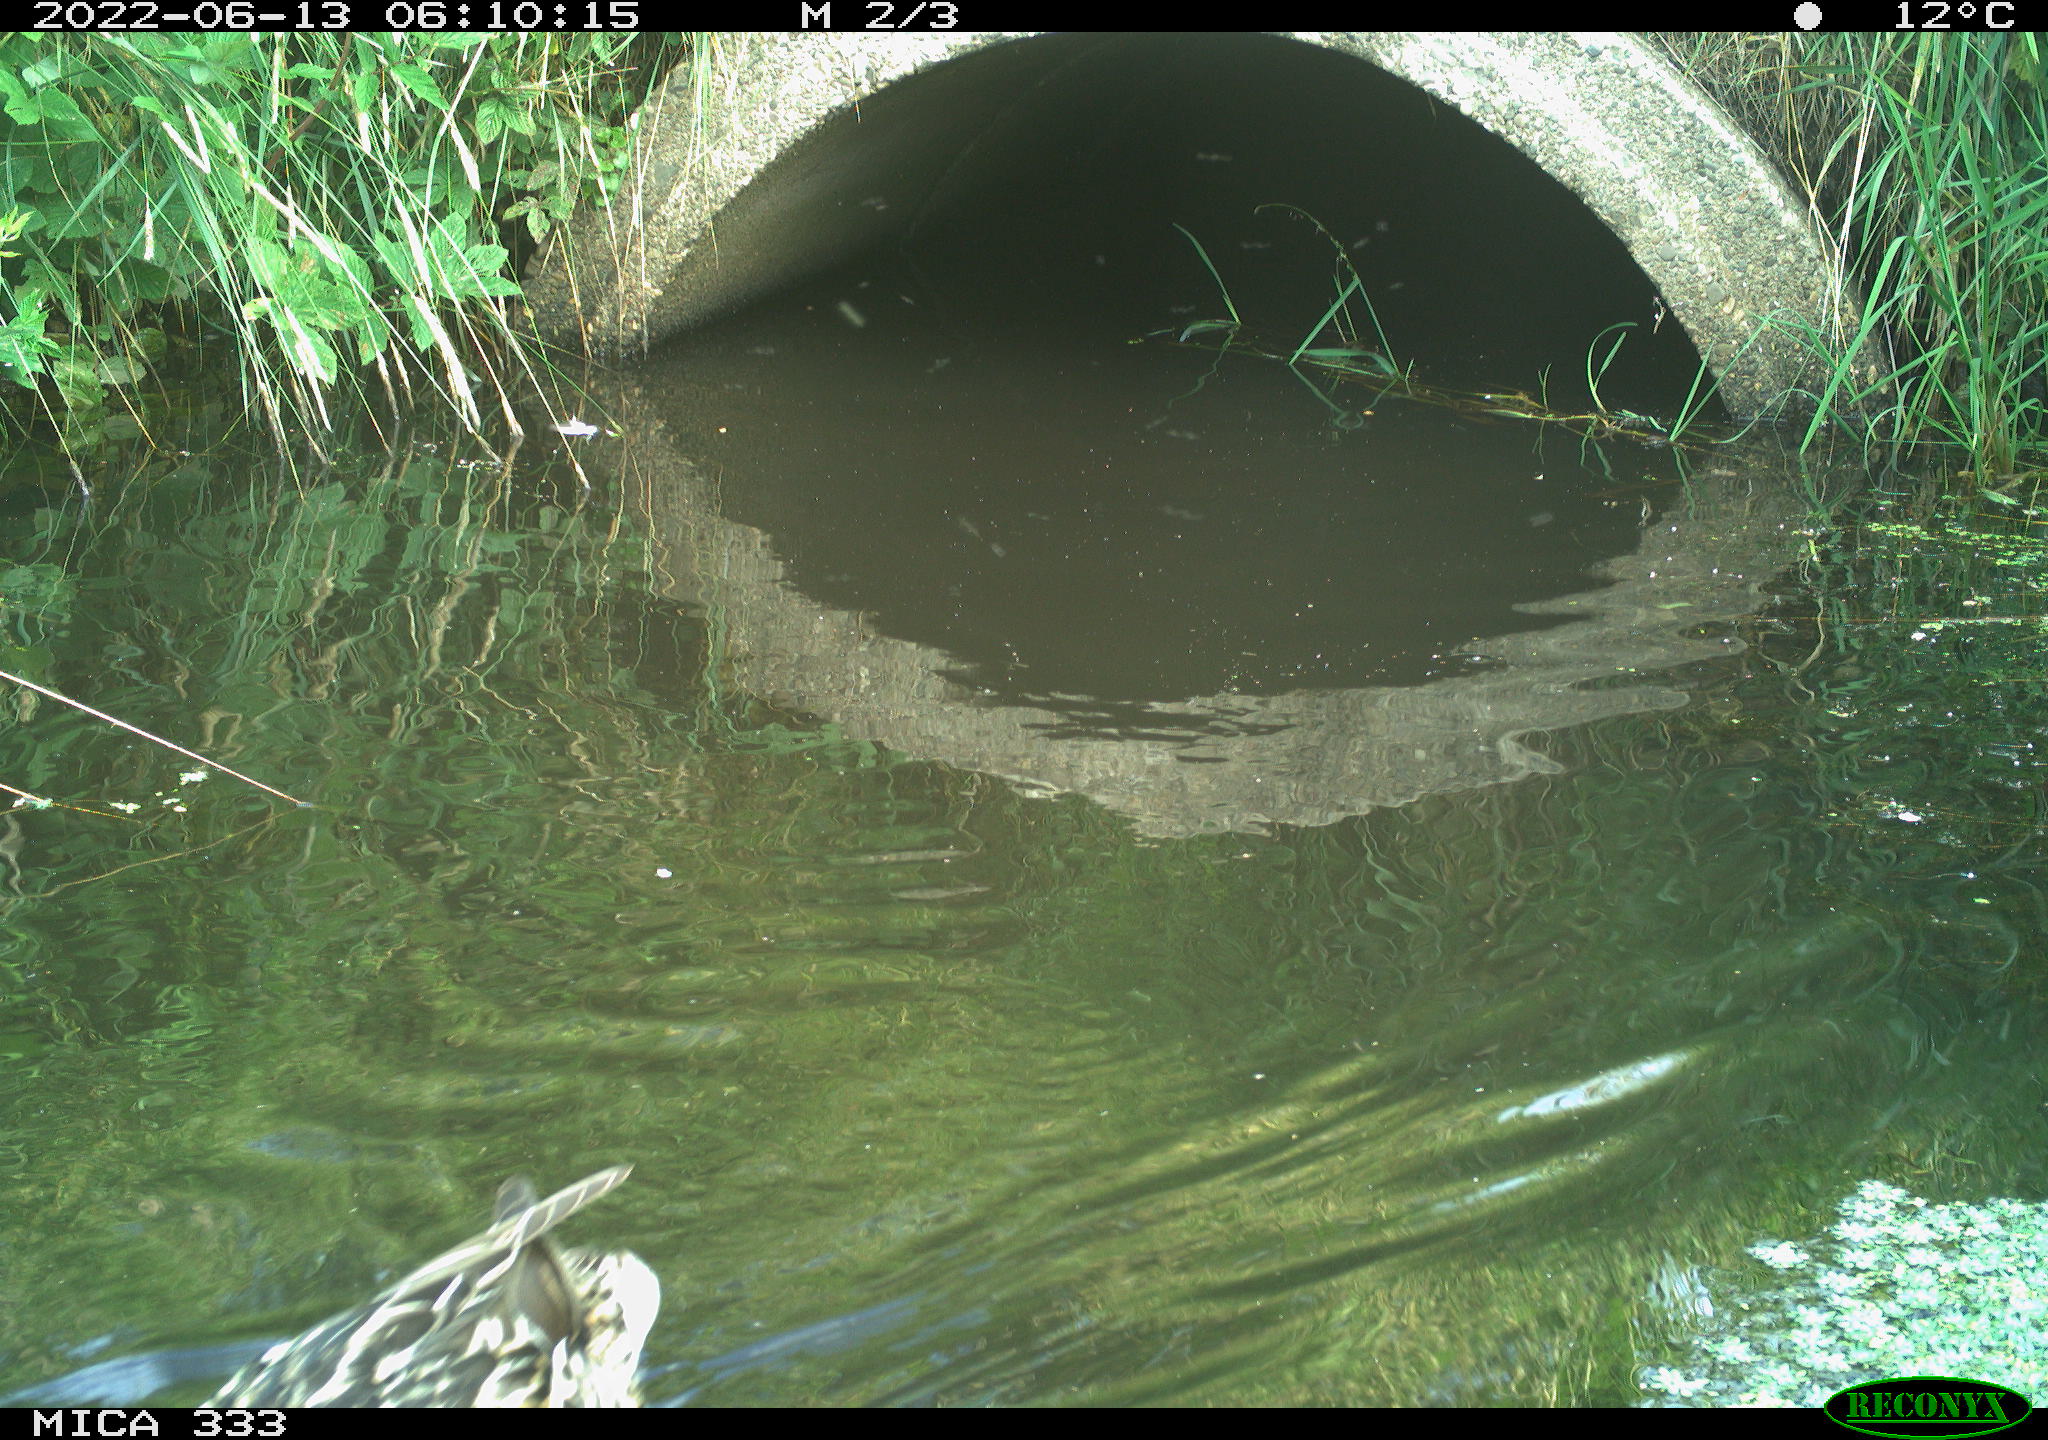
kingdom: Animalia
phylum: Chordata
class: Aves
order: Anseriformes
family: Anatidae
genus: Anas
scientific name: Anas platyrhynchos
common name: Mallard
